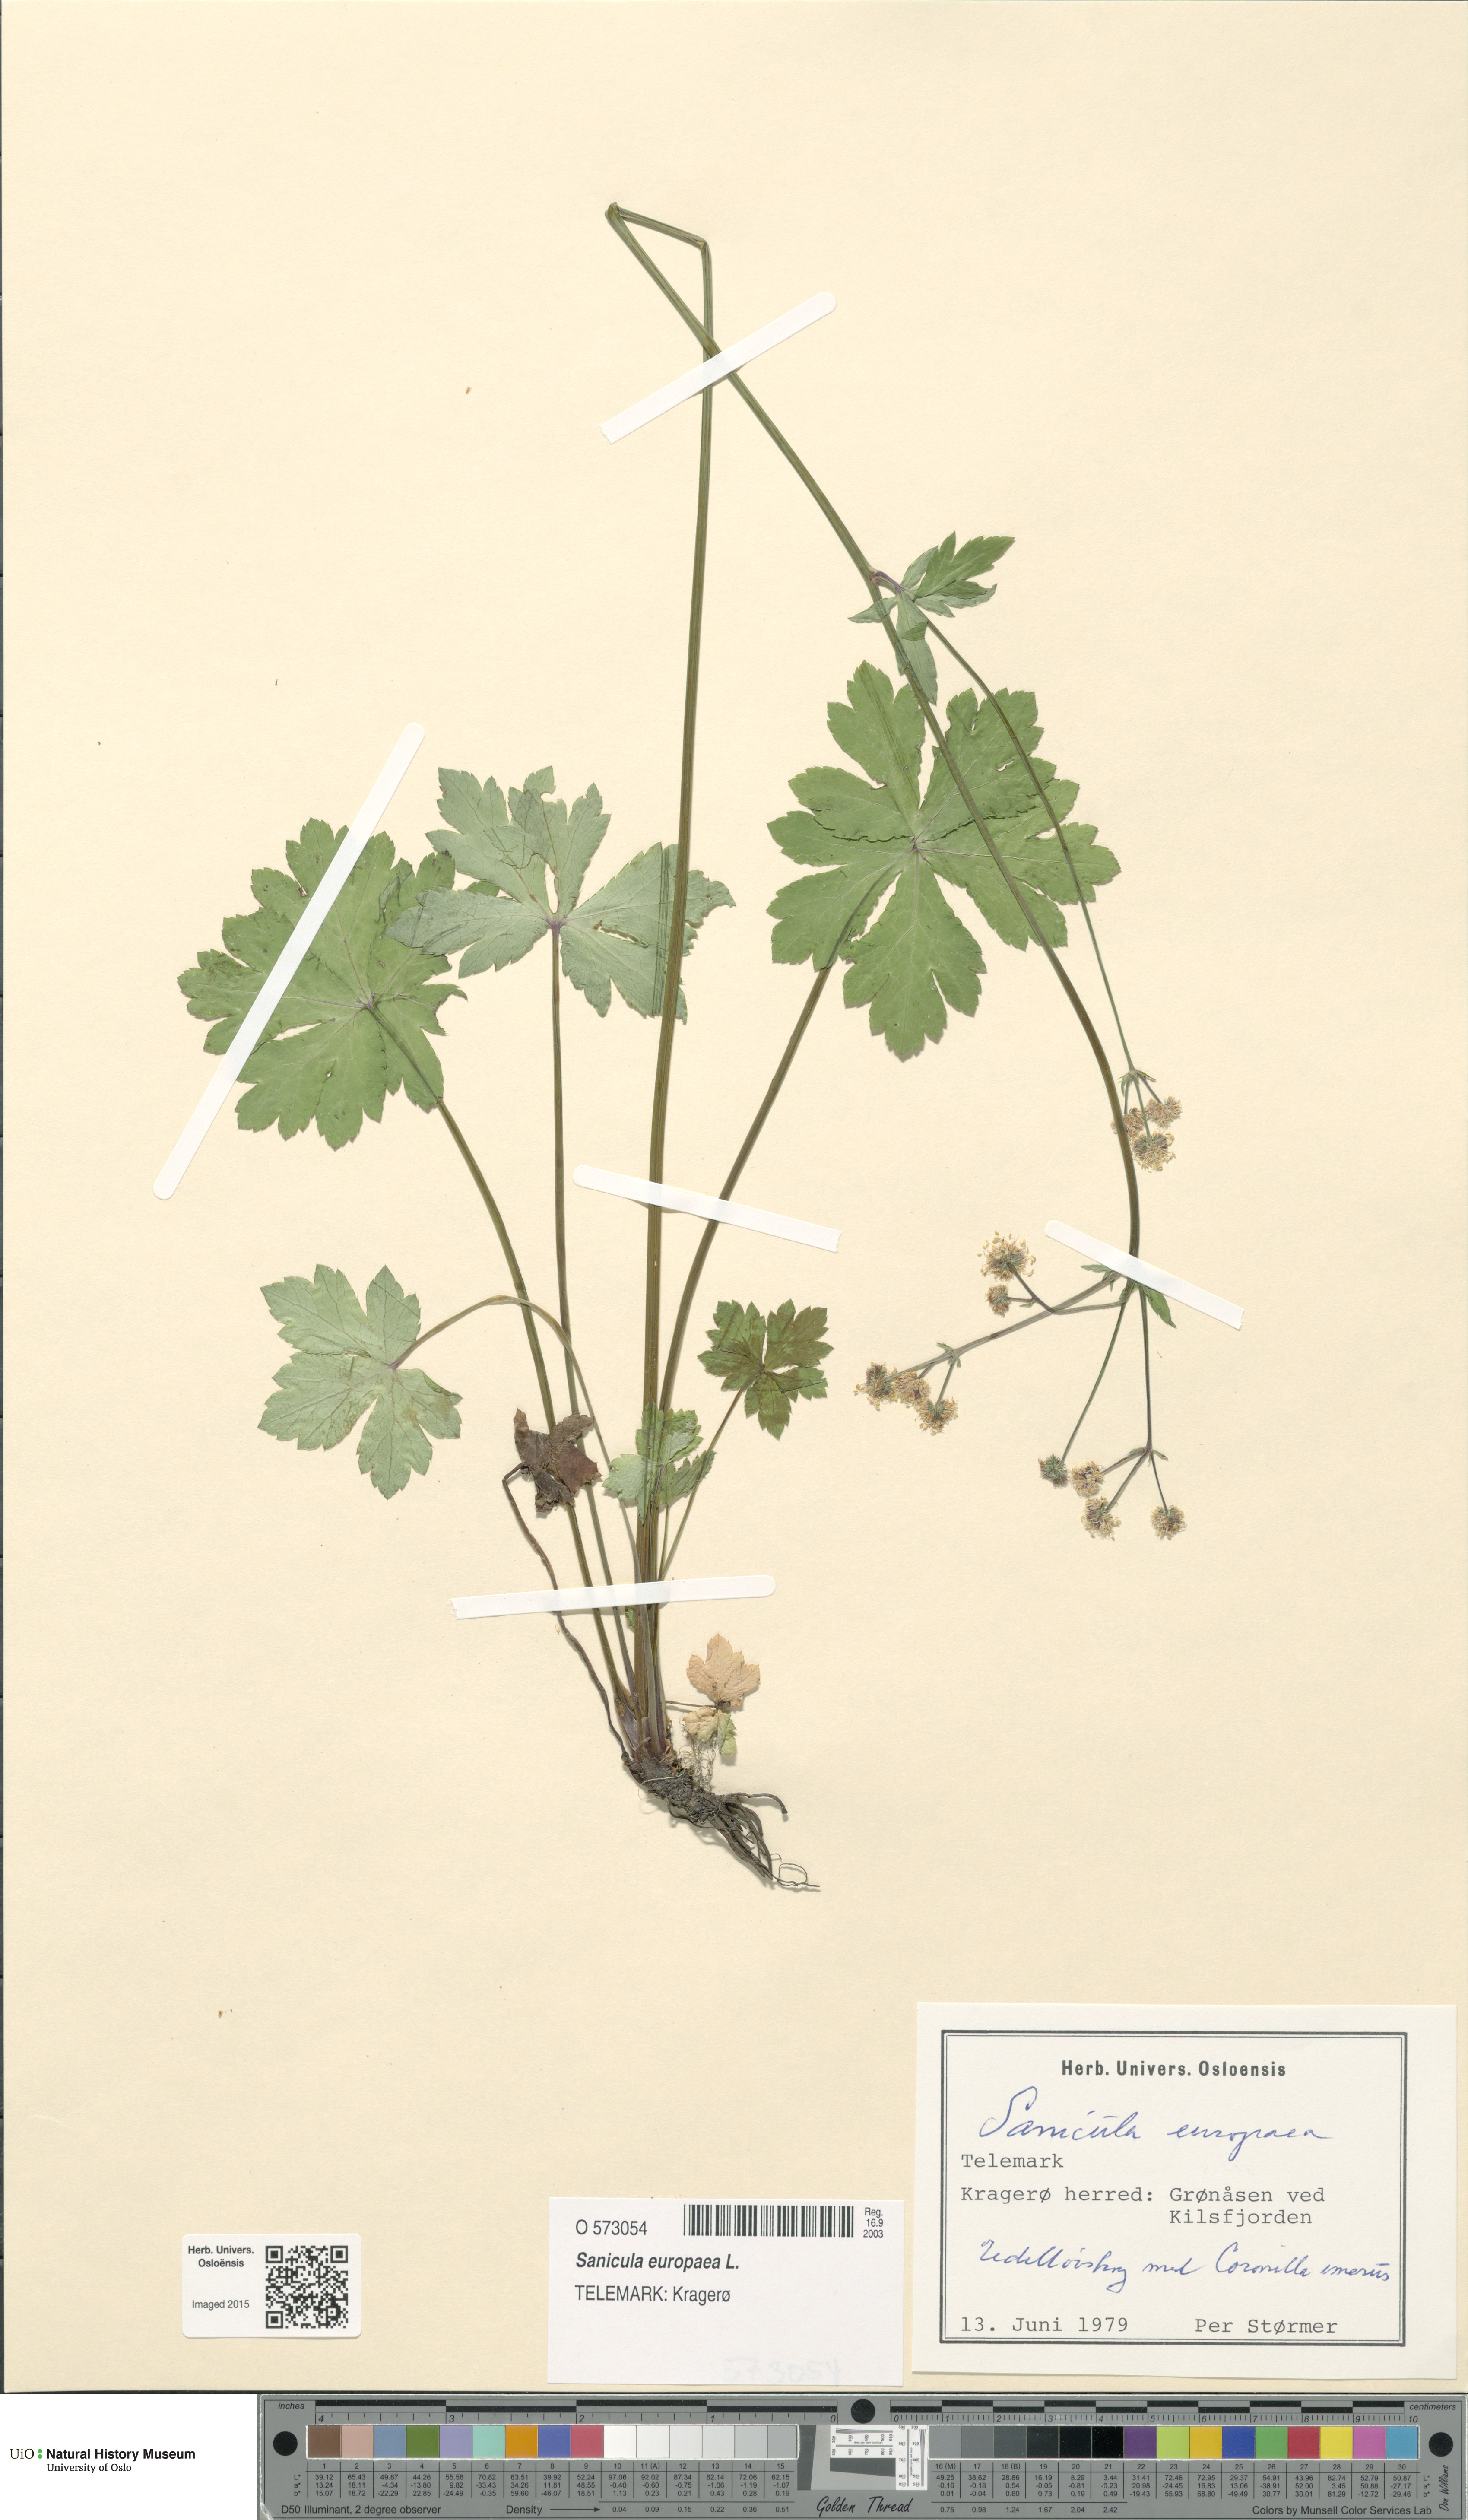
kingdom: Plantae
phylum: Tracheophyta
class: Magnoliopsida
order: Apiales
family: Apiaceae
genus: Sanicula
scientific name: Sanicula europaea
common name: Sanicle
